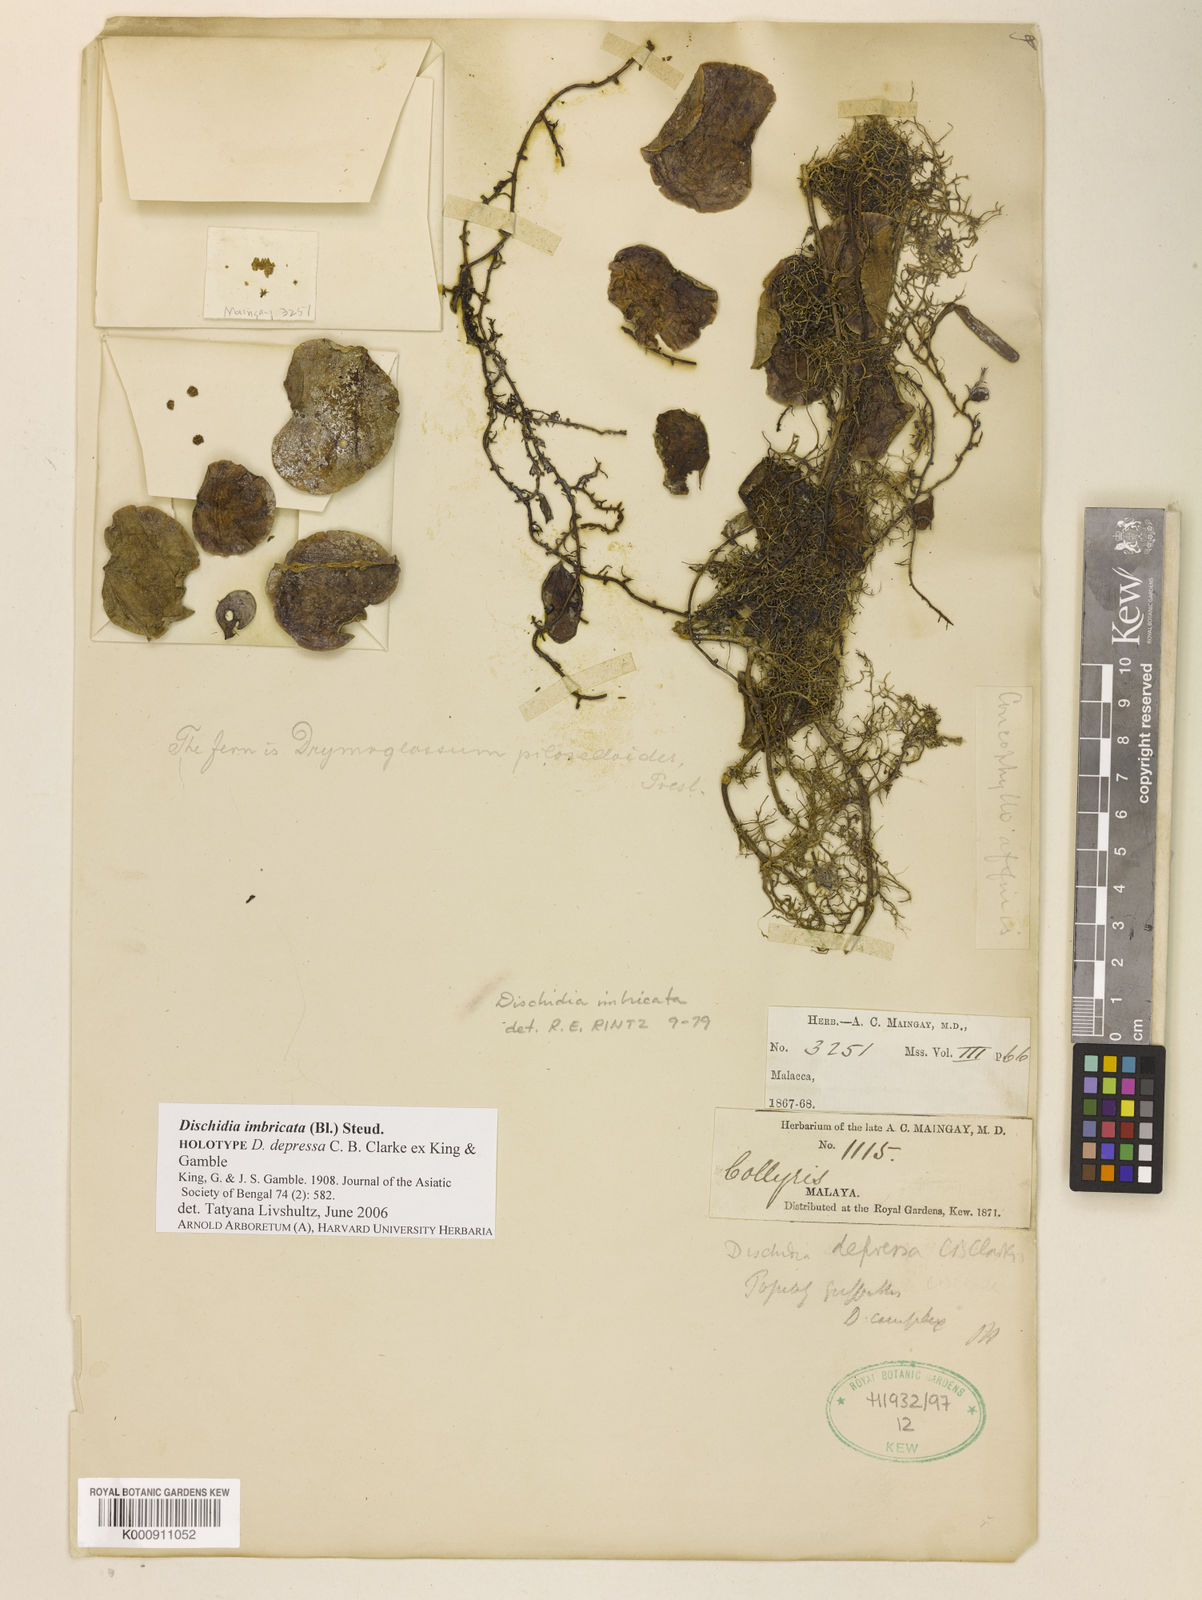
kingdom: Plantae
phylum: Tracheophyta
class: Magnoliopsida
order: Gentianales
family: Apocynaceae
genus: Dischidia
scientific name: Dischidia imbricata
